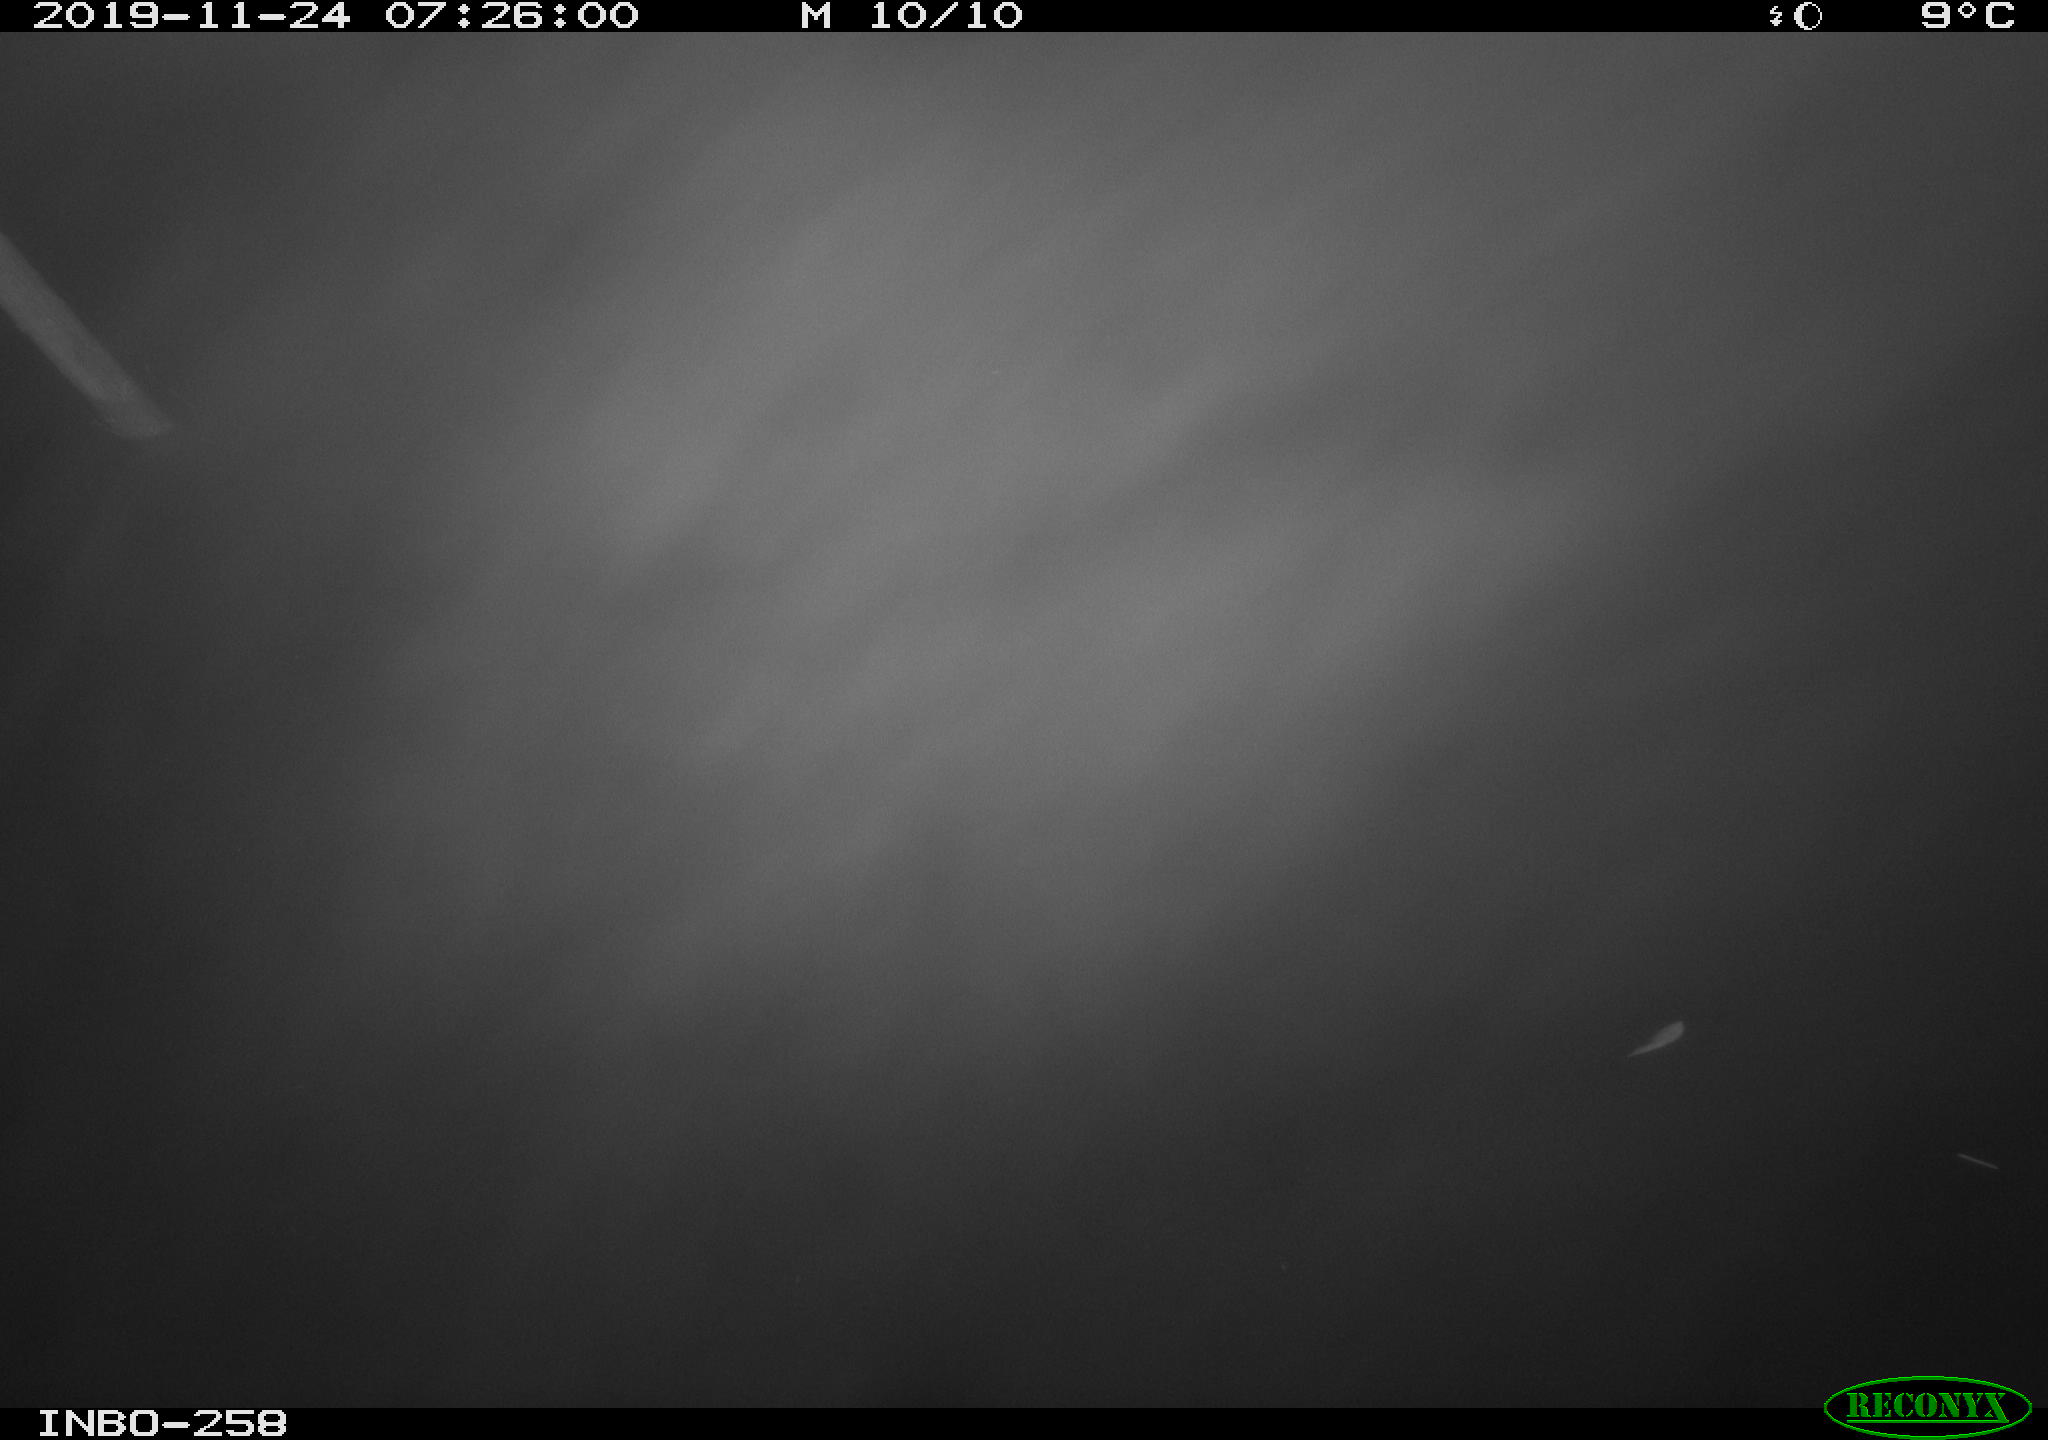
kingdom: Animalia
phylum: Chordata
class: Aves
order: Gruiformes
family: Rallidae
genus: Gallinula
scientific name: Gallinula chloropus
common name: Common moorhen
